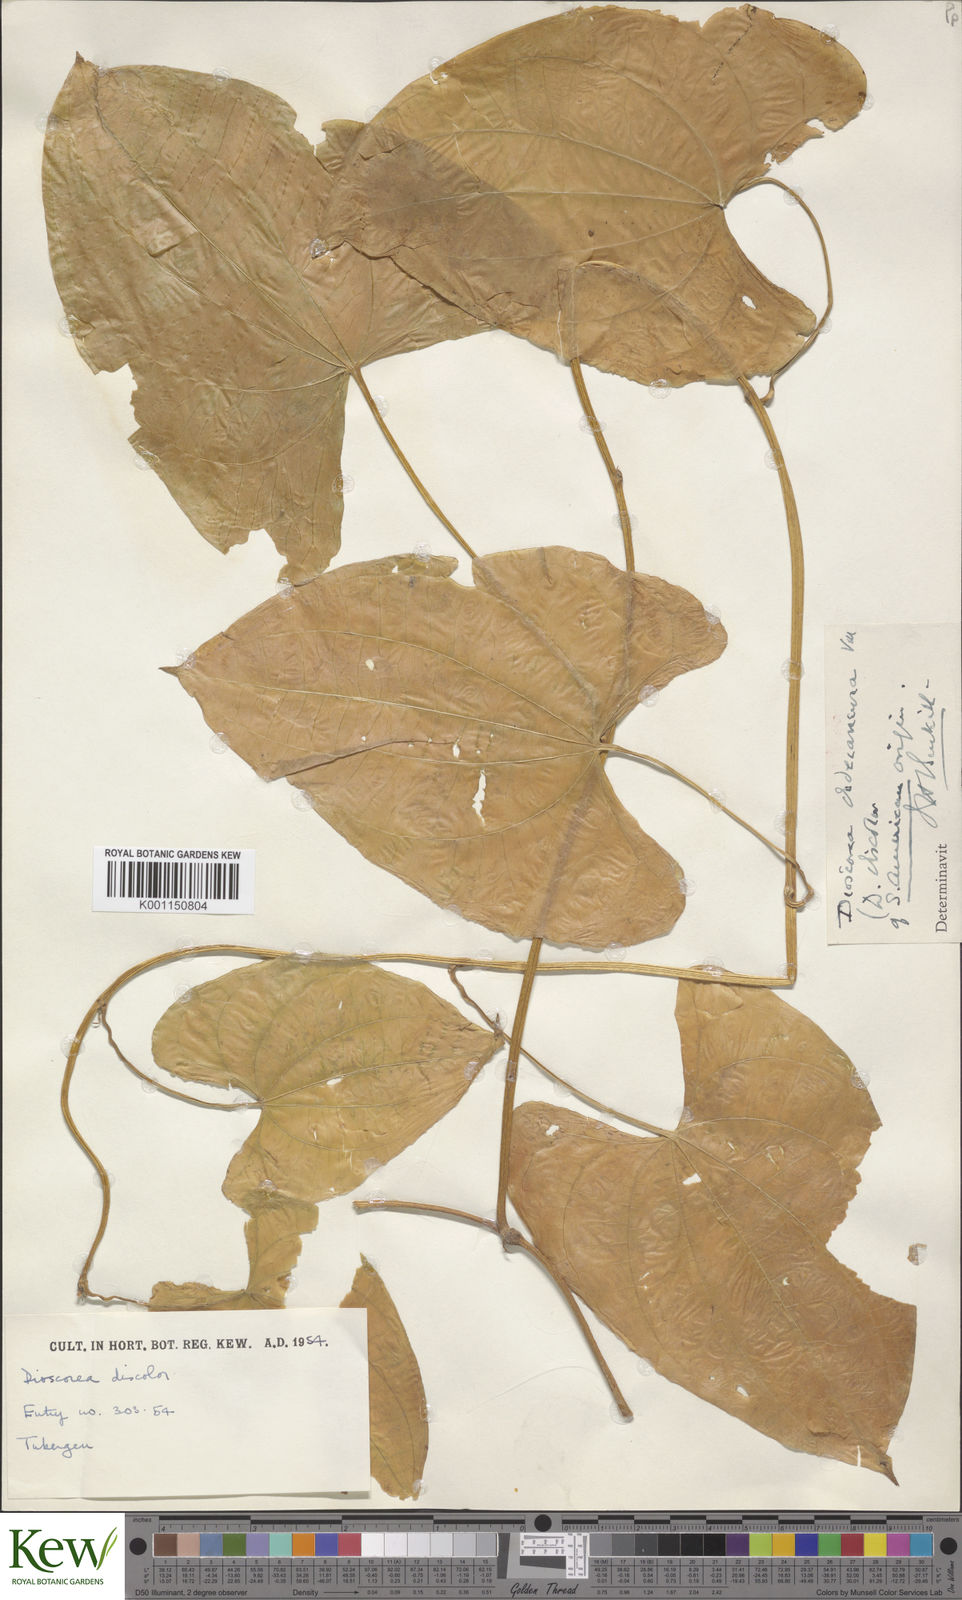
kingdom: Plantae
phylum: Tracheophyta
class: Liliopsida
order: Dioscoreales
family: Dioscoreaceae
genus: Dioscorea
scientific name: Dioscorea dodecaneura
